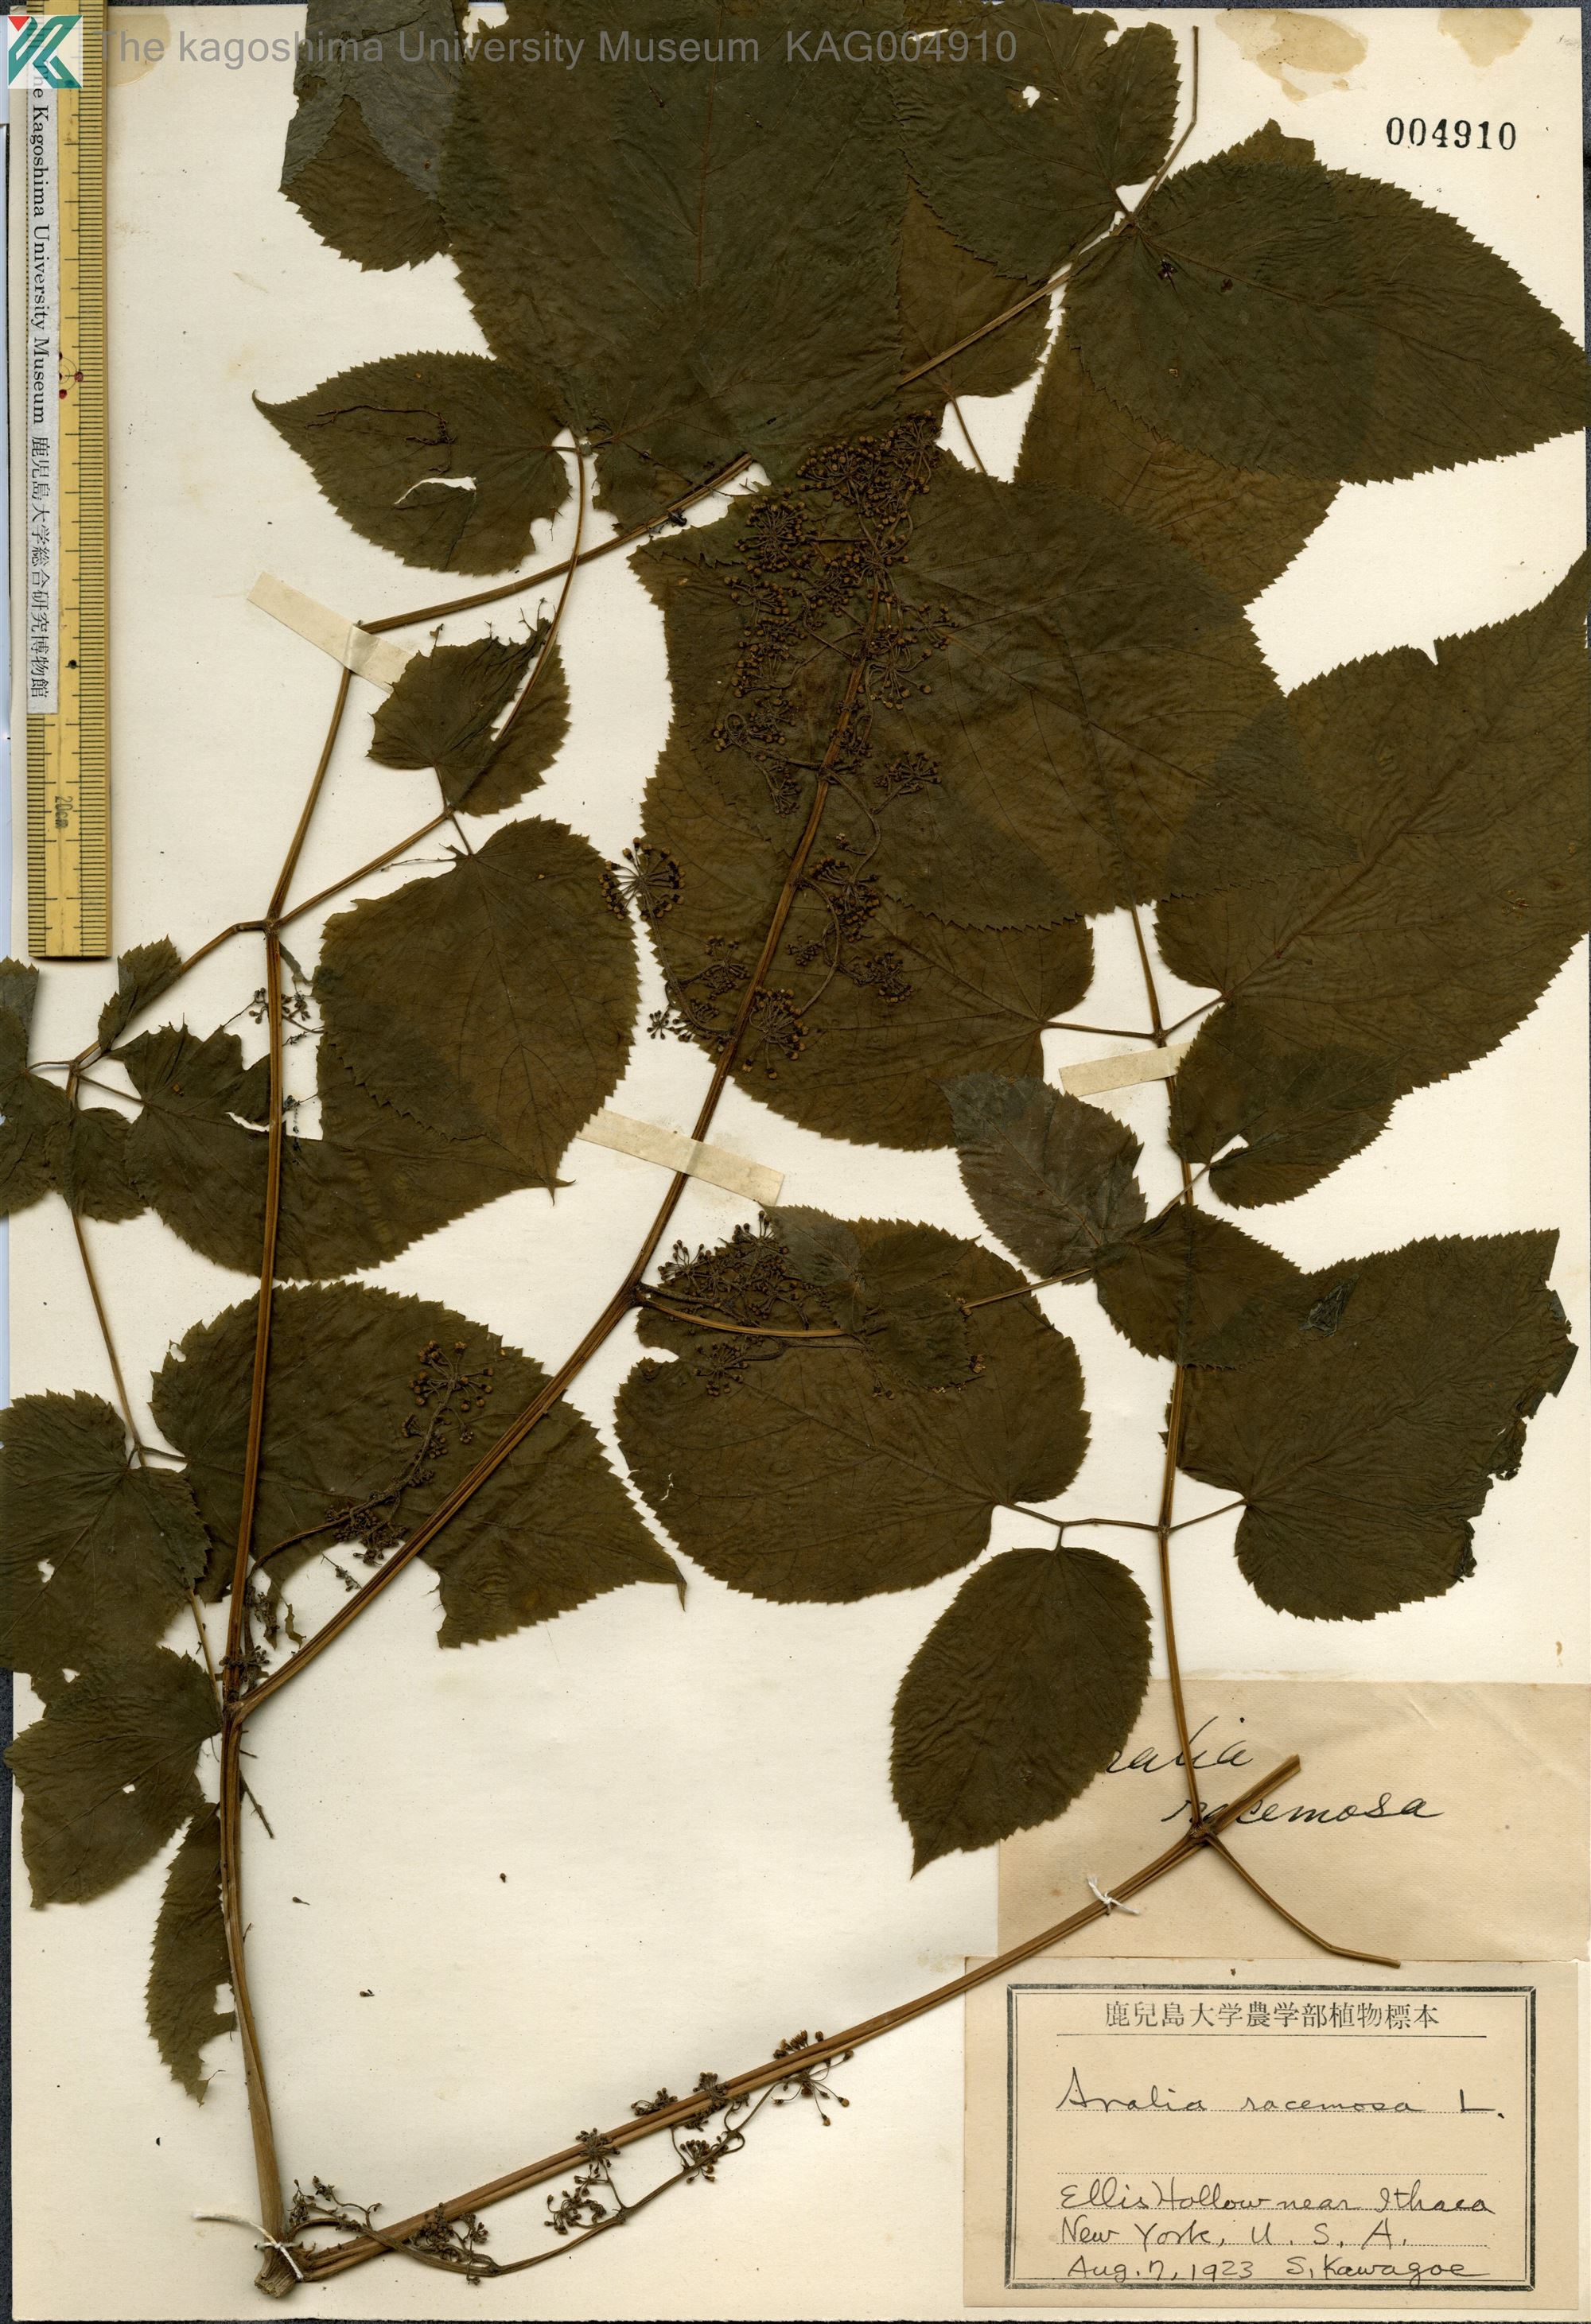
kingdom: Plantae
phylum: Tracheophyta
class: Magnoliopsida
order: Apiales
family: Araliaceae
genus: Aralia
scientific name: Aralia racemosa
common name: American-spikenard
